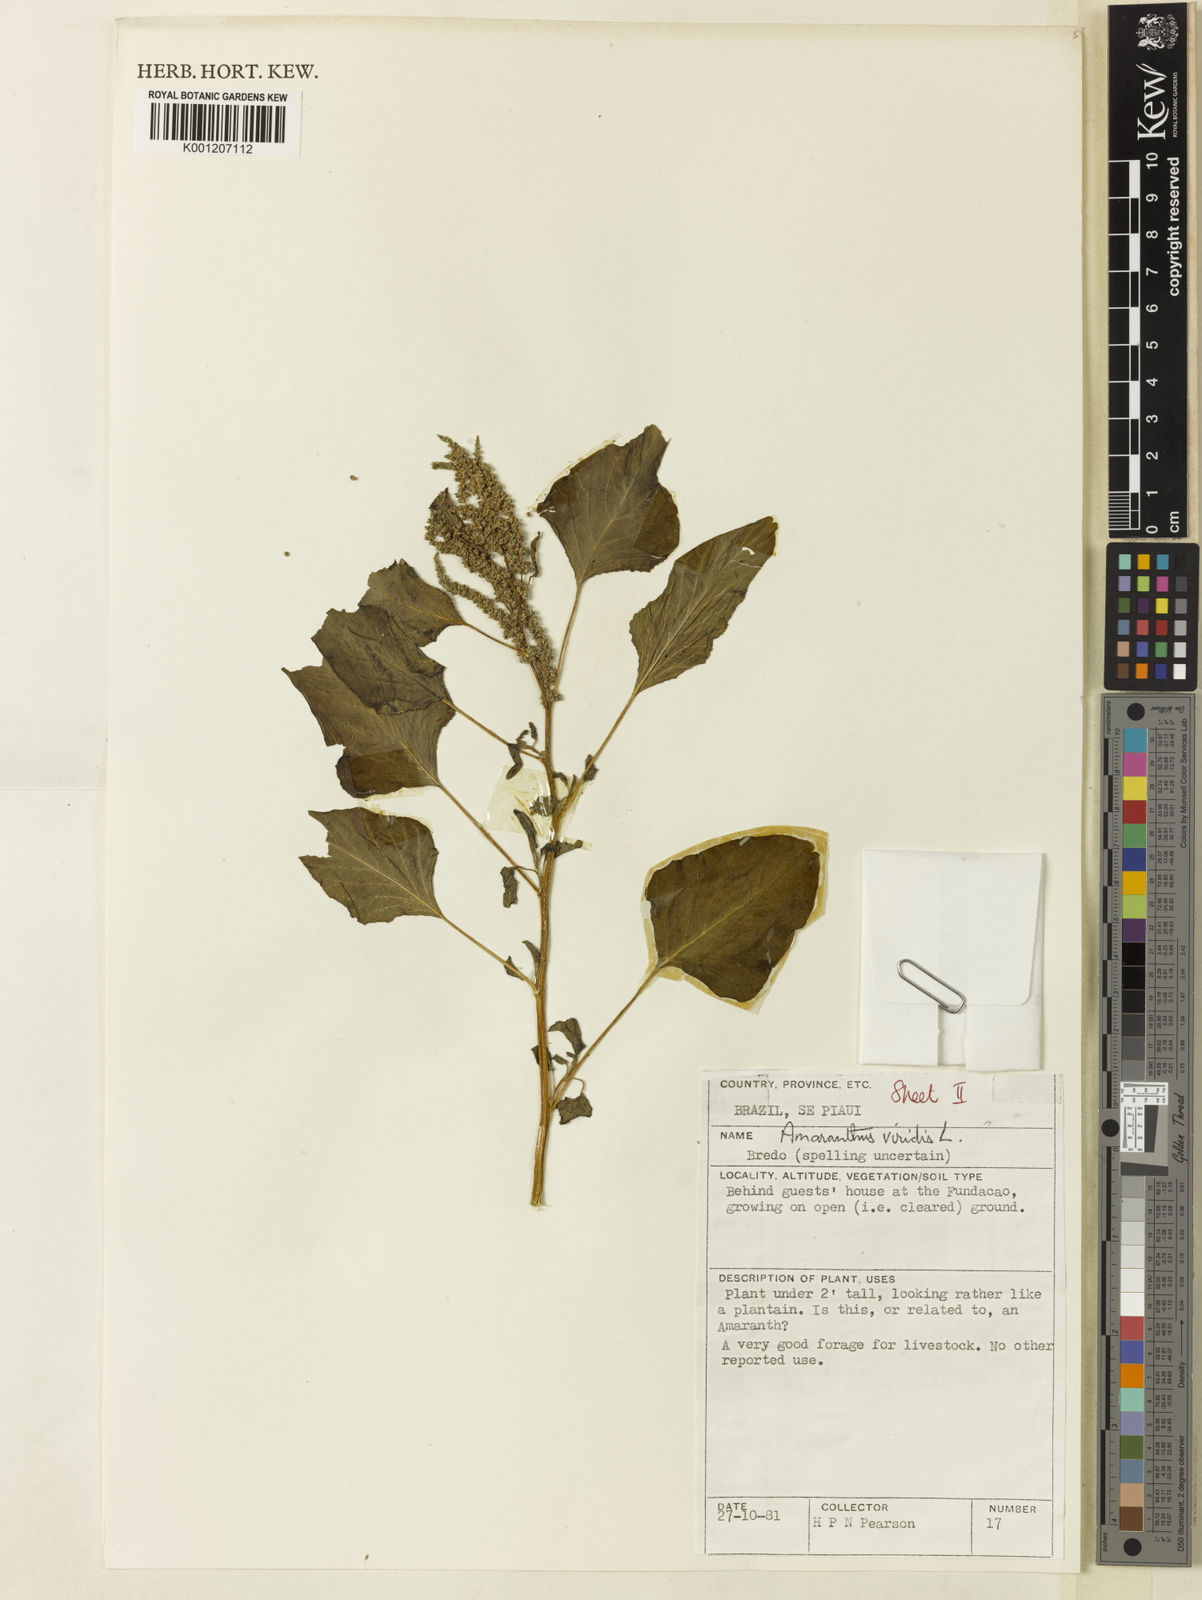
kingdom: Plantae
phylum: Tracheophyta
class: Magnoliopsida
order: Caryophyllales
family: Amaranthaceae
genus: Amaranthus
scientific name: Amaranthus viridis
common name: Slender amaranth
